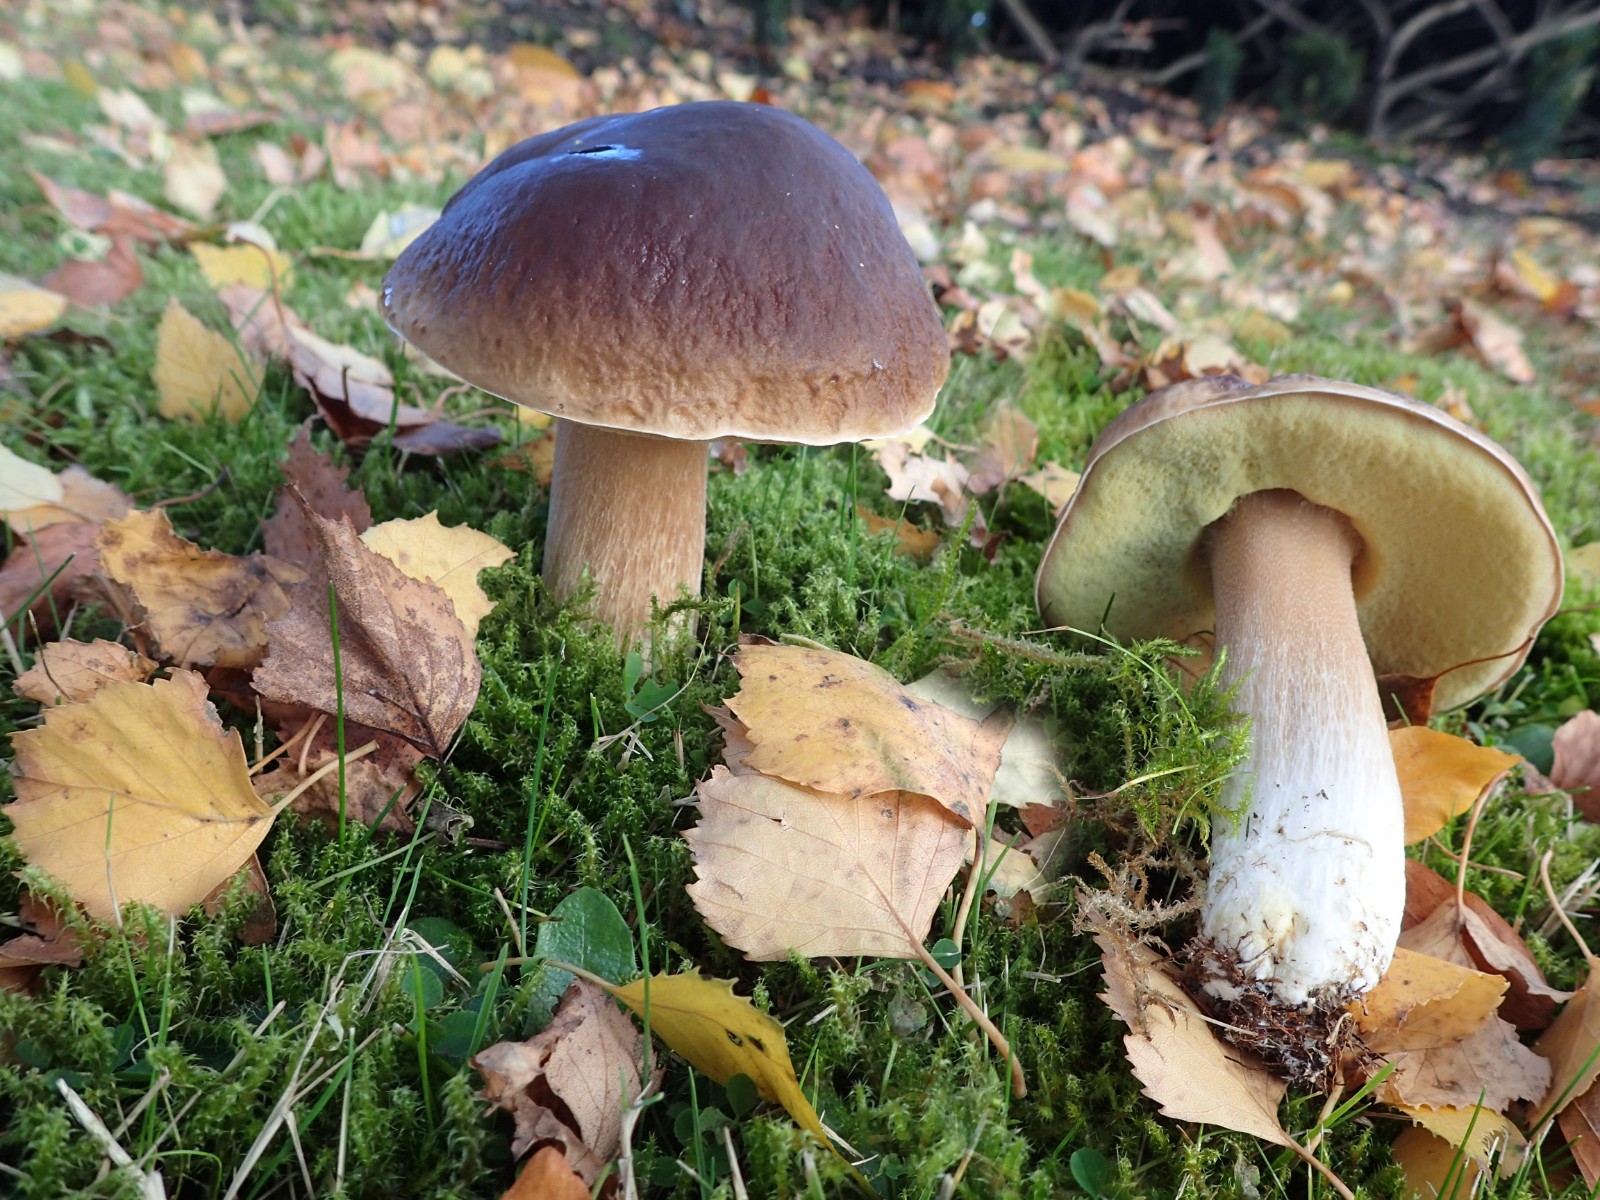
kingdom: Fungi
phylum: Basidiomycota
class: Agaricomycetes
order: Boletales
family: Boletaceae
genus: Boletus
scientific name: Boletus edulis
